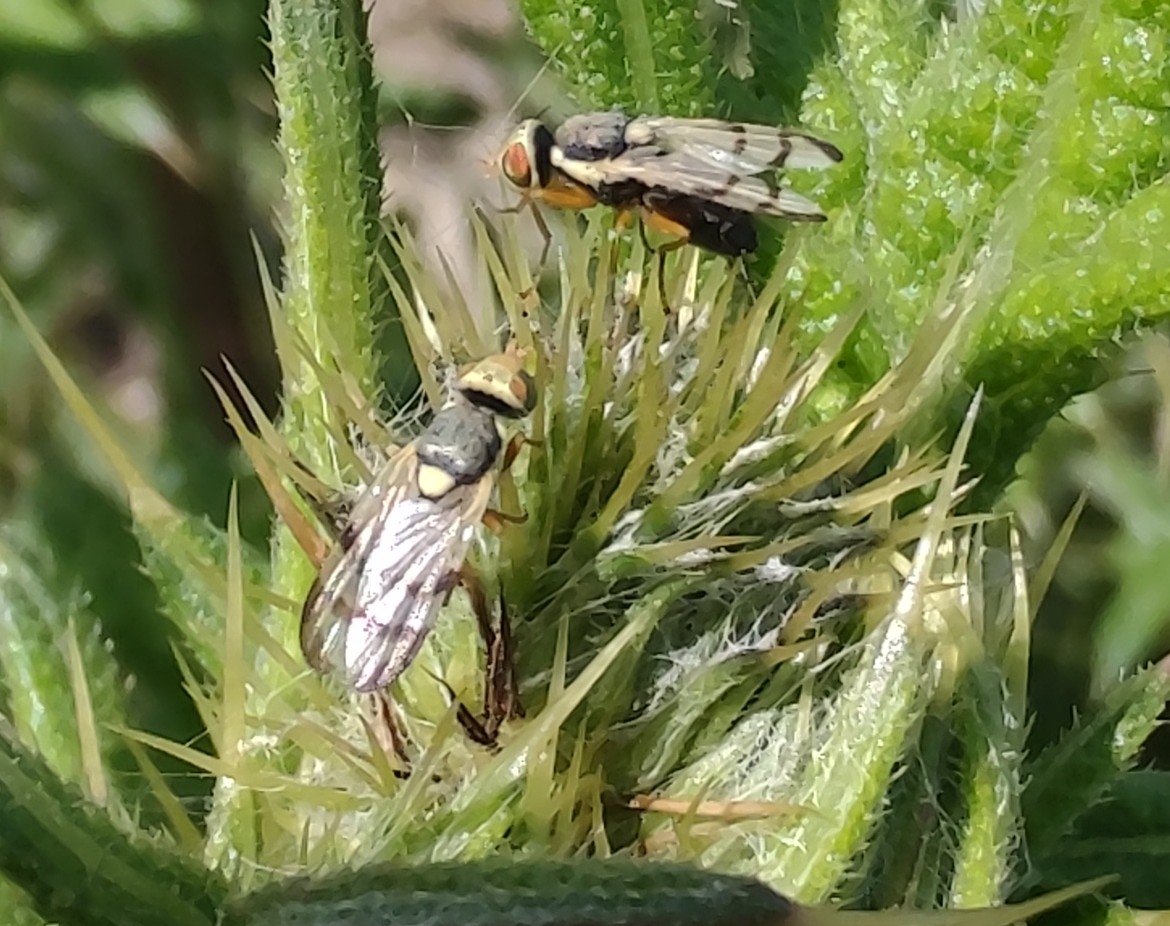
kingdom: Animalia
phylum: Arthropoda
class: Insecta
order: Diptera
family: Tephritidae
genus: Urophora
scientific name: Urophora stylata
